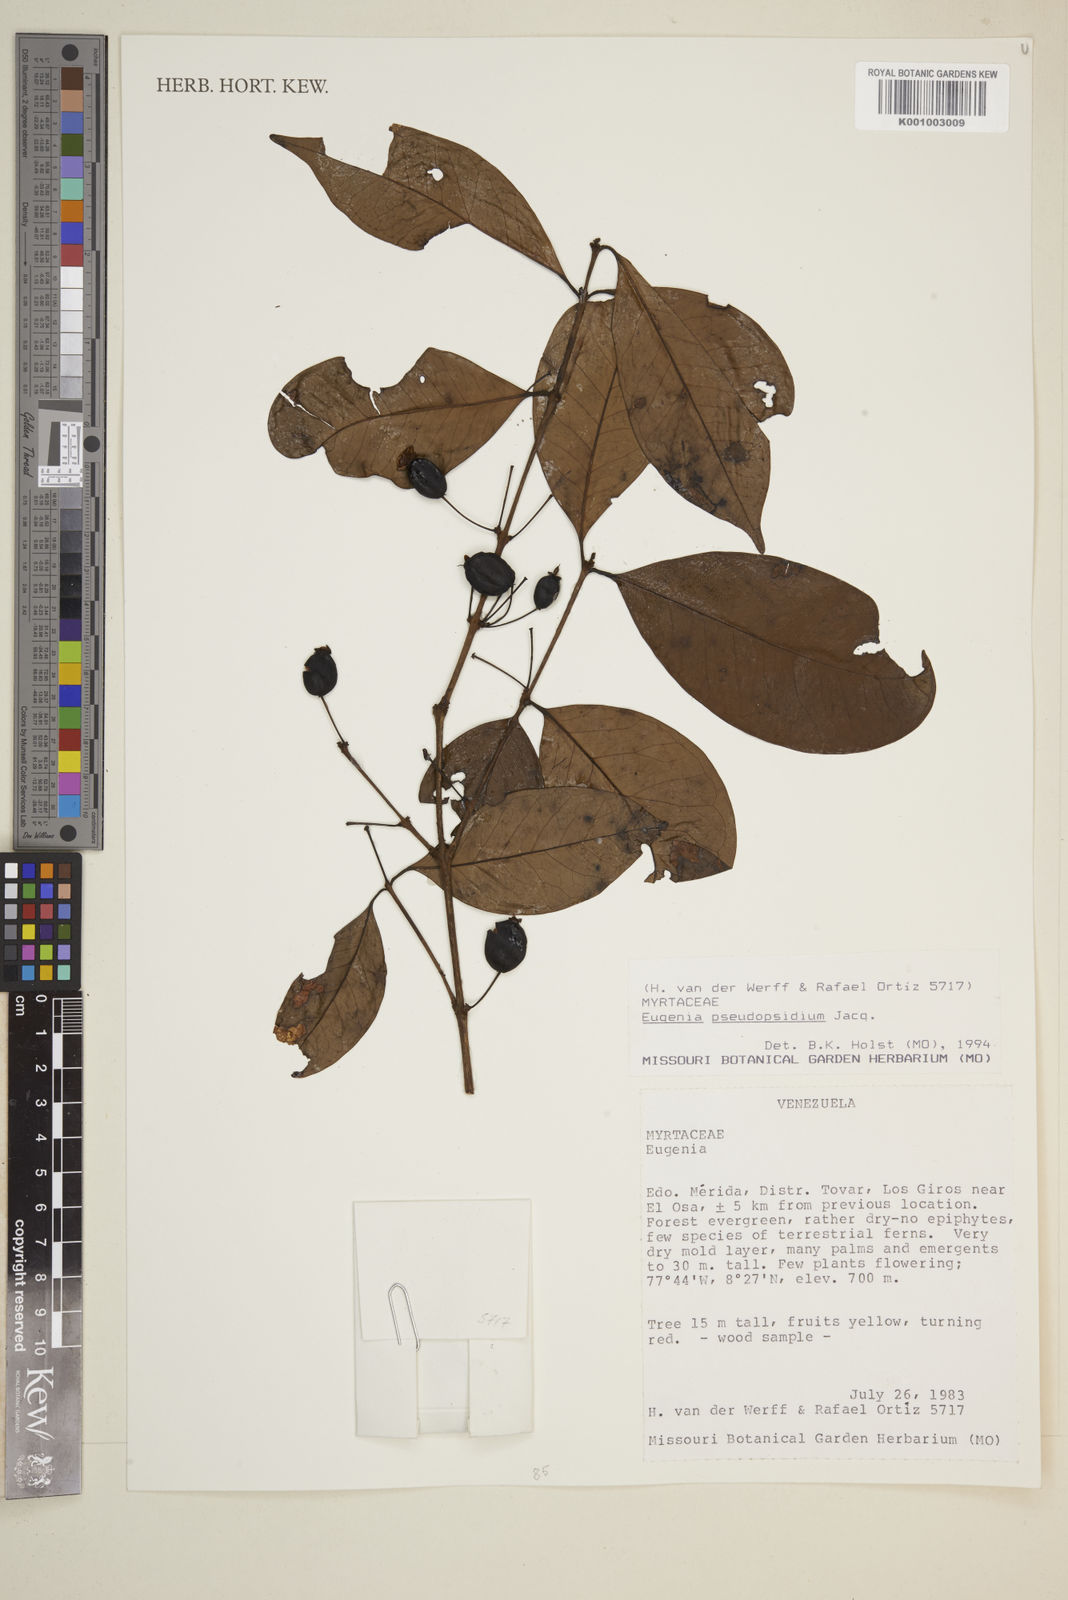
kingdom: Plantae
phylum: Tracheophyta
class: Magnoliopsida
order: Myrtales
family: Myrtaceae
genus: Eugenia
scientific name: Eugenia pseudopsidium
